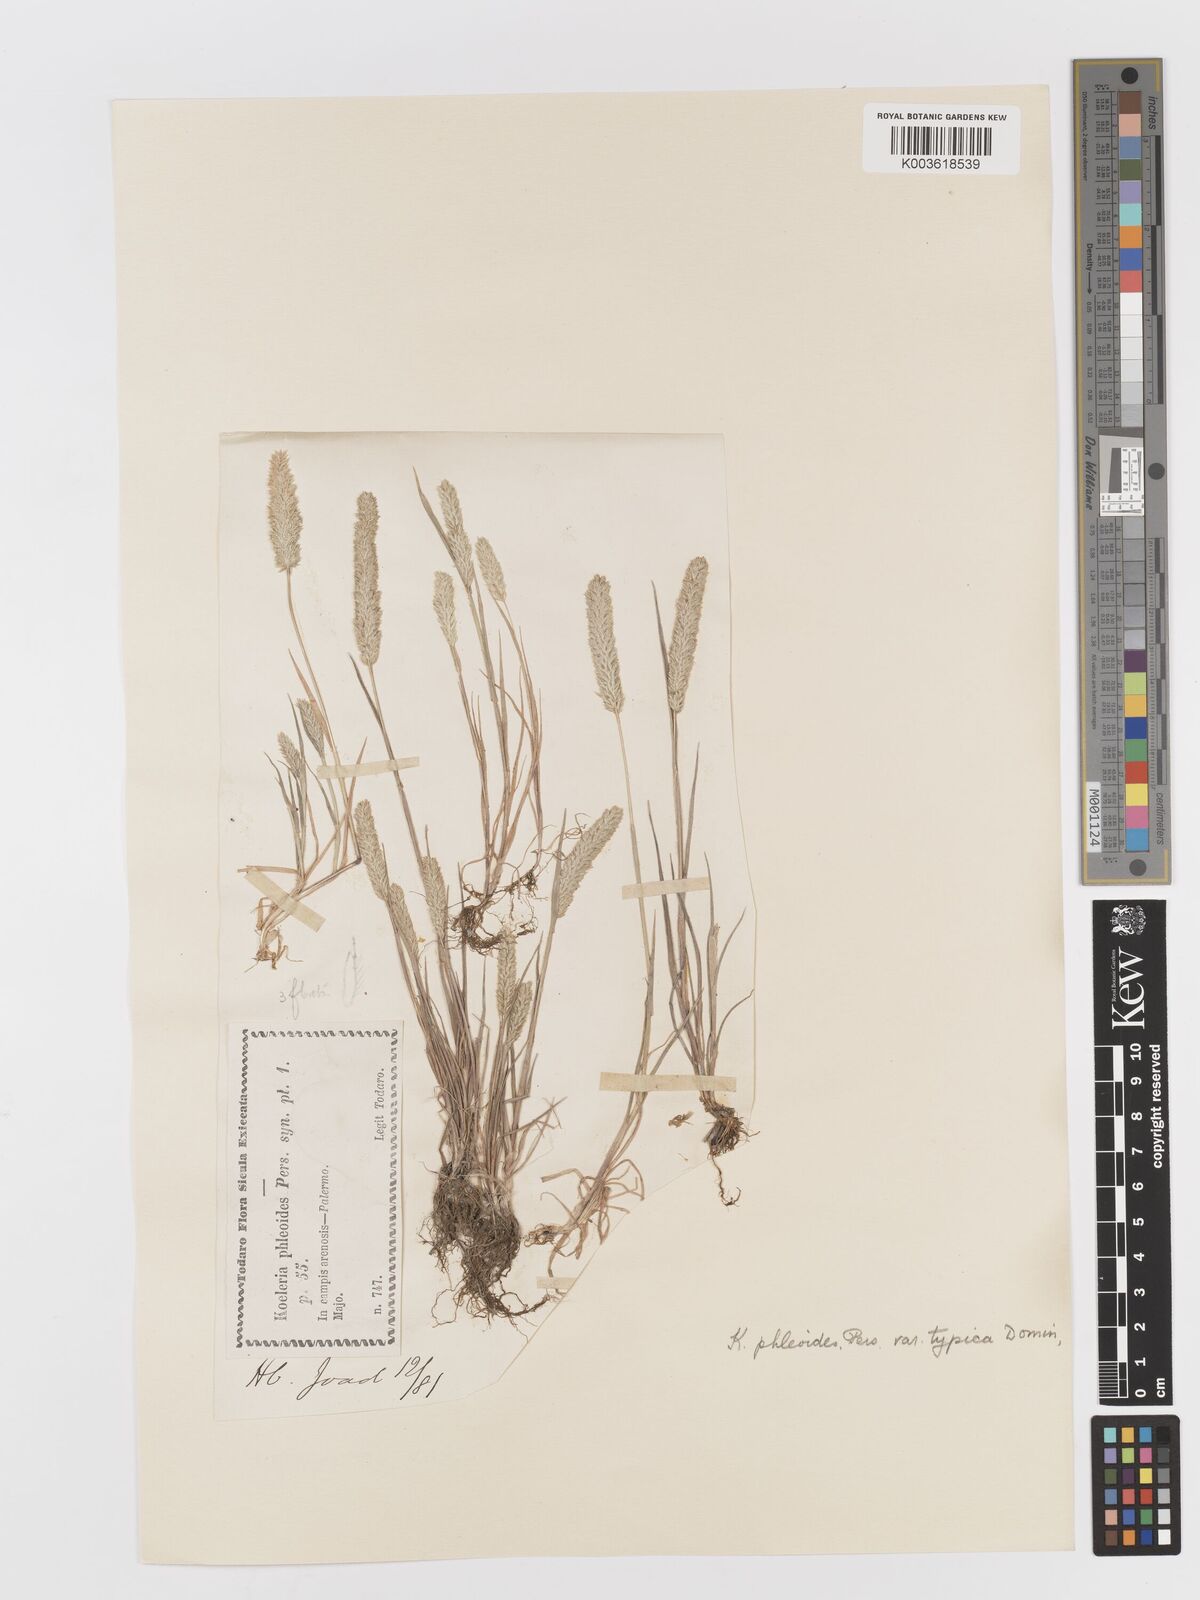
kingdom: Plantae
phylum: Tracheophyta
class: Liliopsida
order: Poales
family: Poaceae
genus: Rostraria
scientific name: Rostraria cristata
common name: Mediterranean hair-grass
